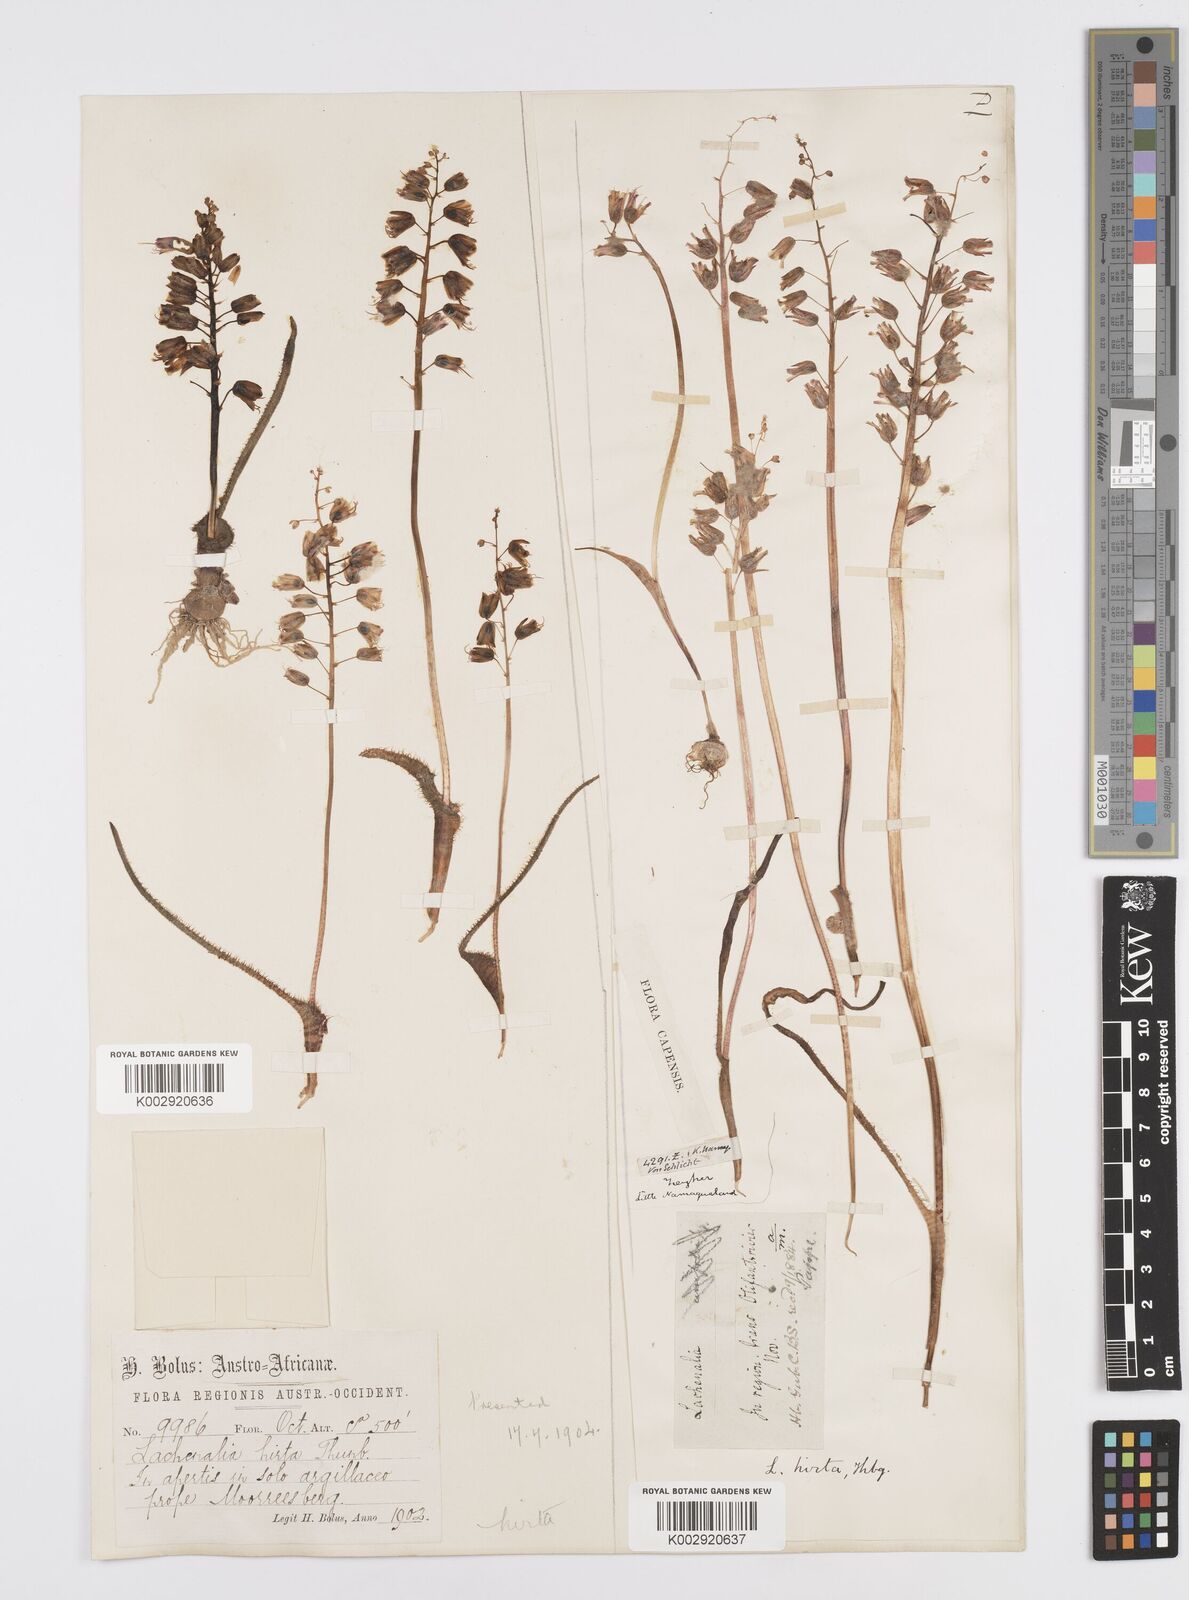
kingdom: Plantae
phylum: Tracheophyta
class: Liliopsida
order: Asparagales
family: Asparagaceae
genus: Lachenalia
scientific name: Lachenalia hirta
